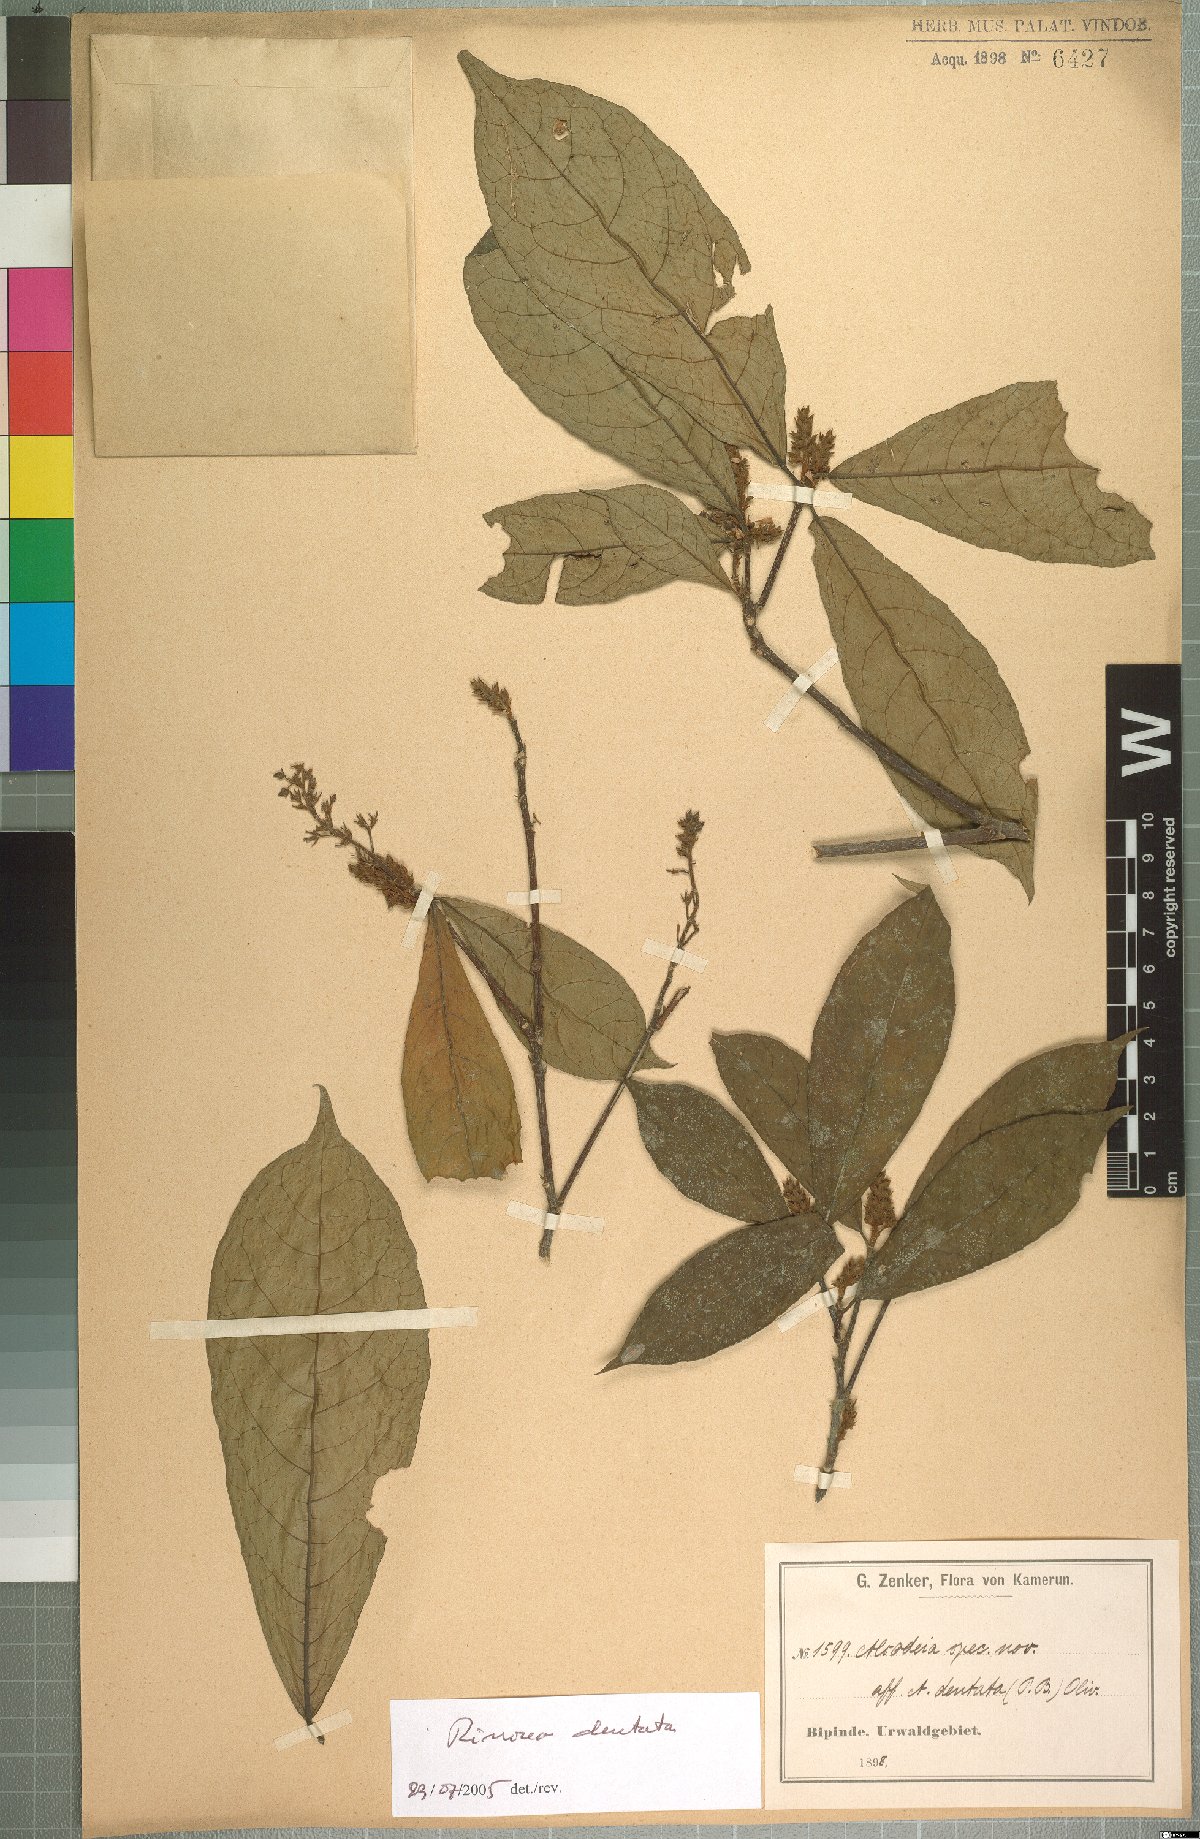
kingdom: Plantae
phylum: Tracheophyta
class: Magnoliopsida
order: Malpighiales
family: Violaceae
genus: Rinorea
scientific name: Rinorea dentata
